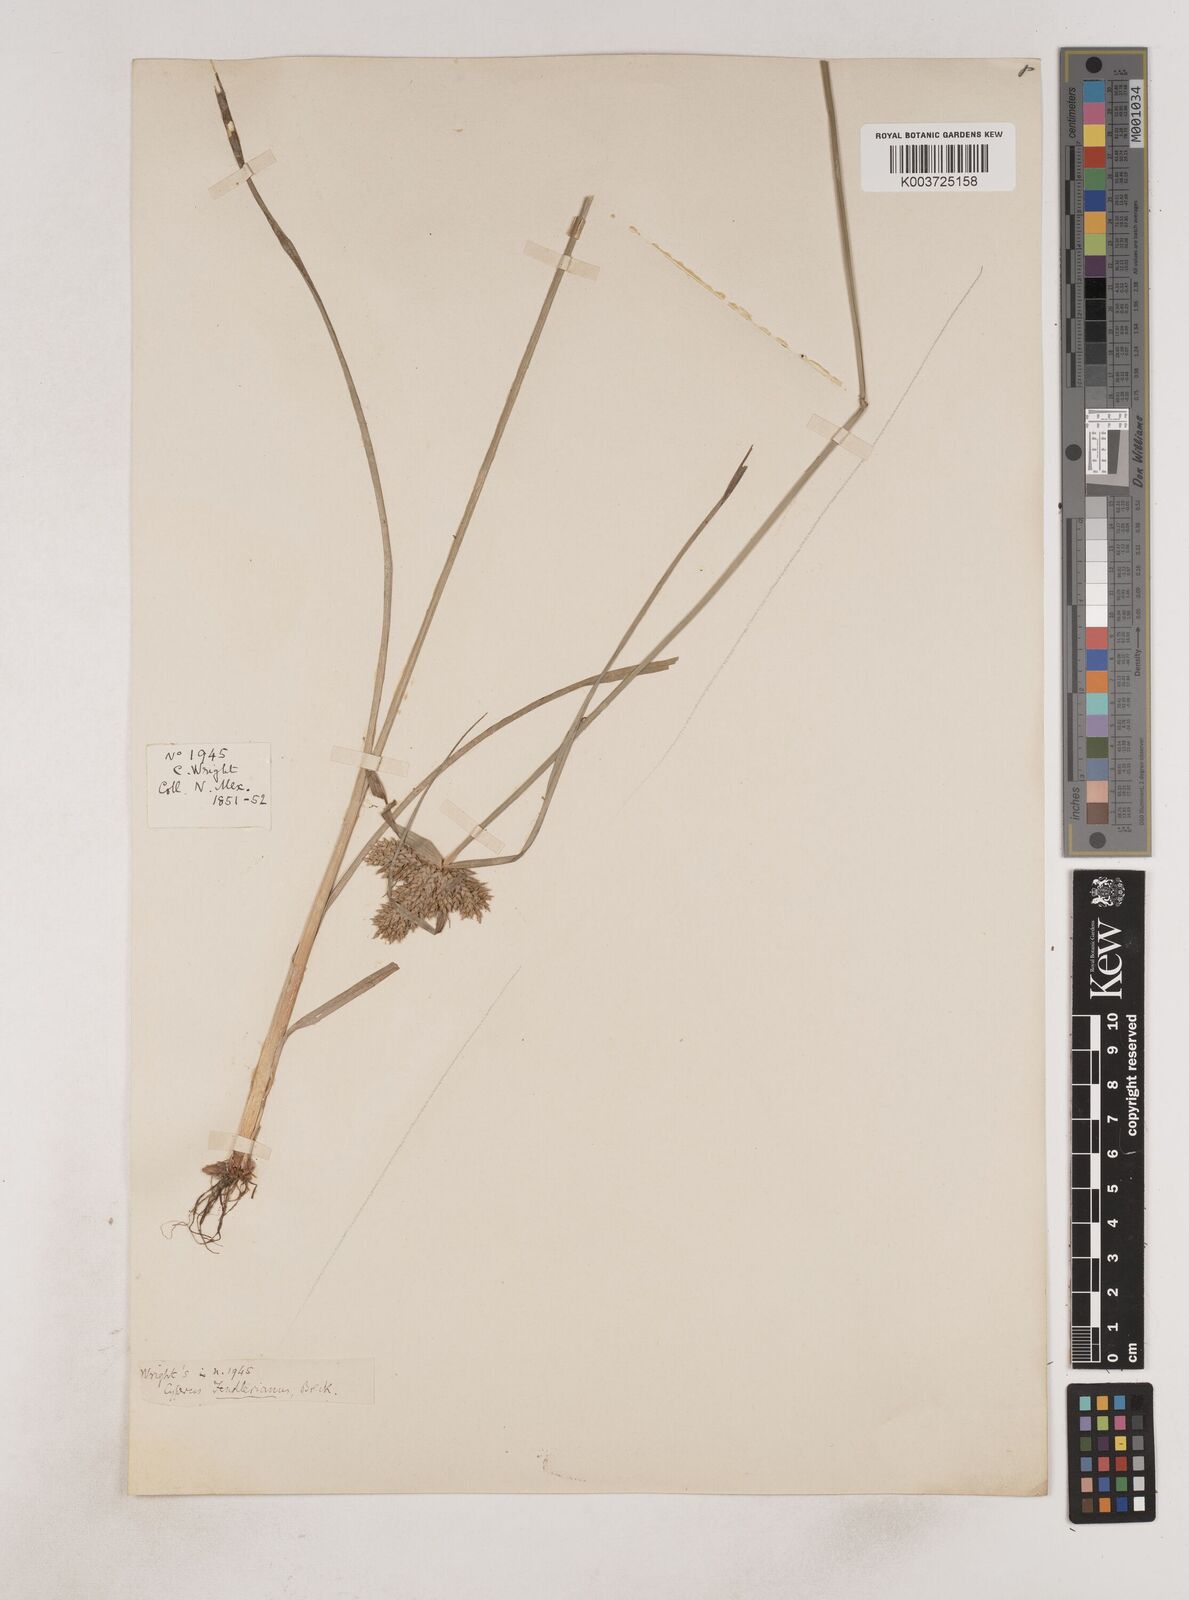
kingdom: Plantae
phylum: Tracheophyta
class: Liliopsida
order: Poales
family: Cyperaceae
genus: Cyperus
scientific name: Cyperus fendlerianus
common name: Fendler flat sedge
